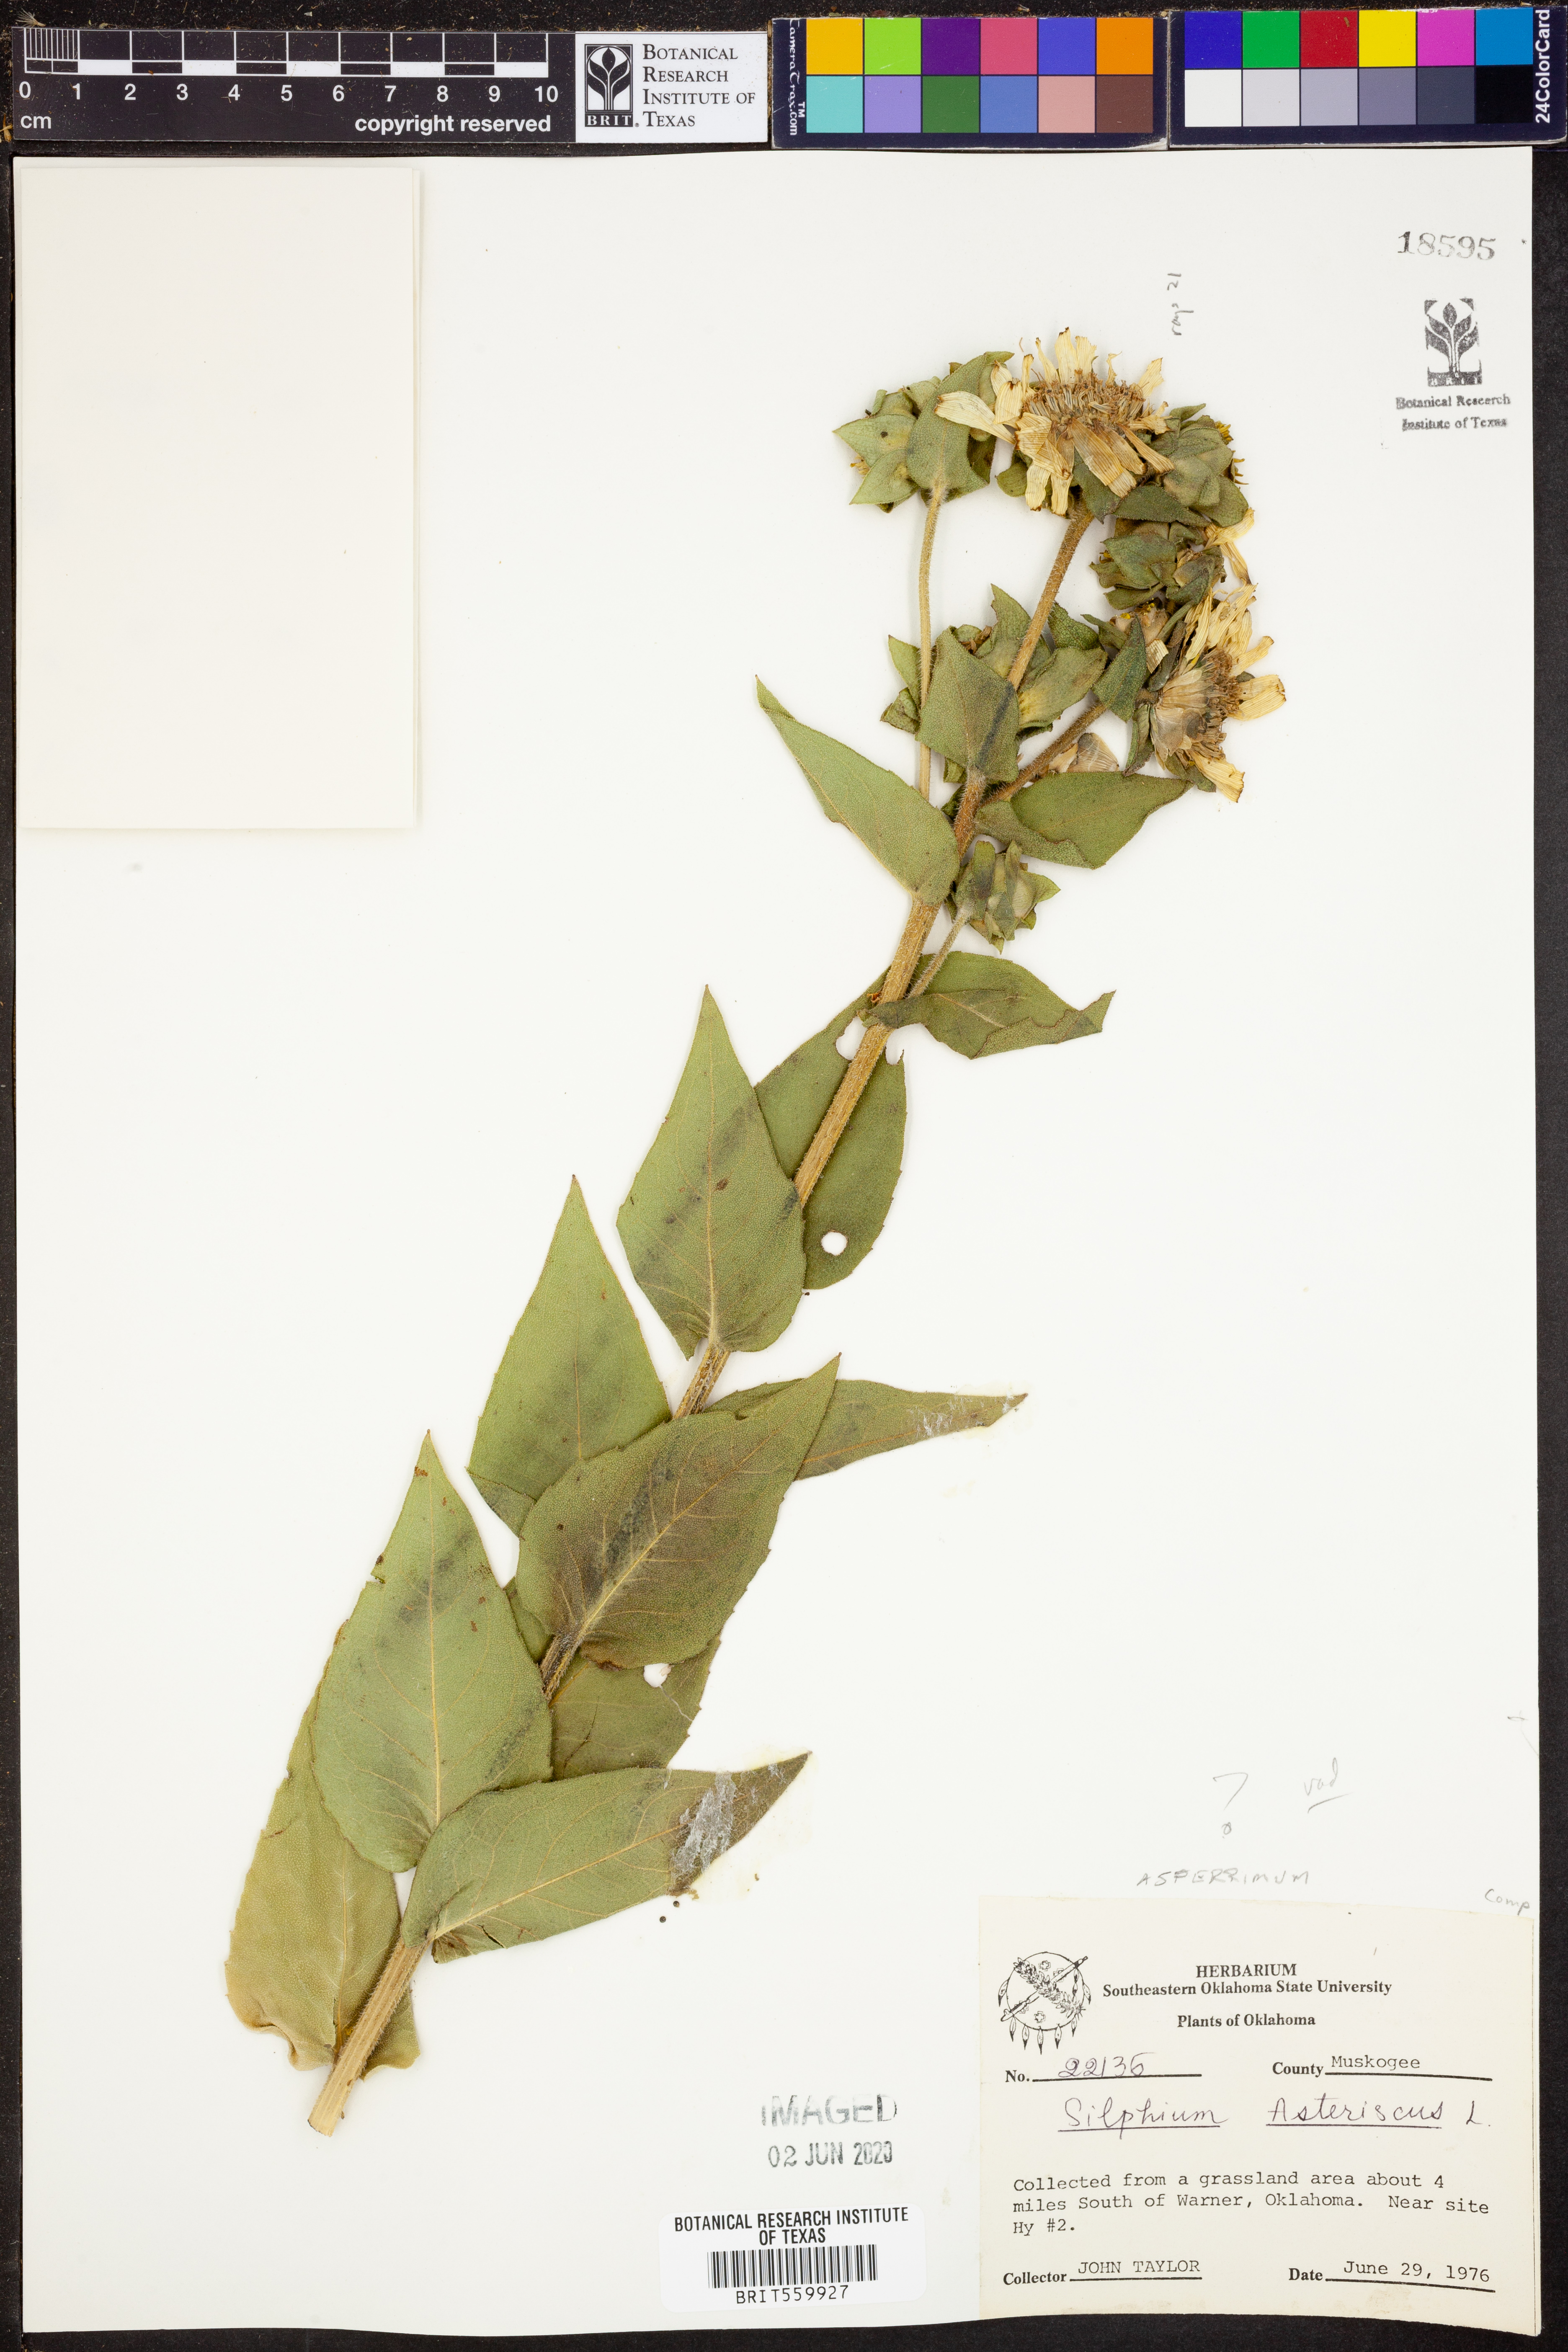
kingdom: Plantae
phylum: Tracheophyta
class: Magnoliopsida
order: Asterales
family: Asteraceae
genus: Silphium
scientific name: Silphium asteriscus
